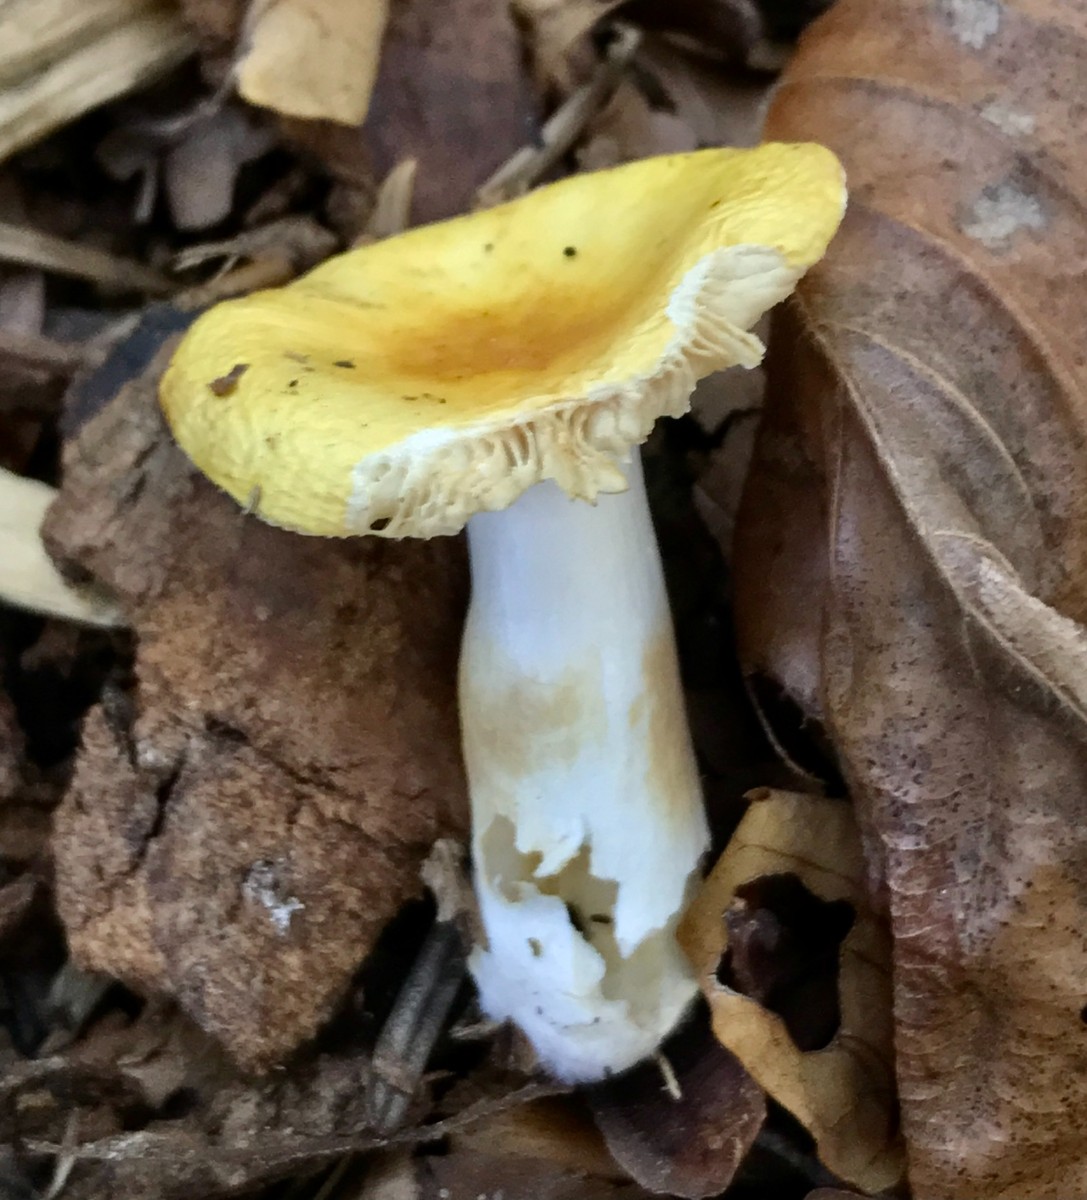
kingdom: Fungi
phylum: Basidiomycota
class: Agaricomycetes
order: Russulales
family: Russulaceae
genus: Russula
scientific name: Russula solaris
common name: sol-skørhat
